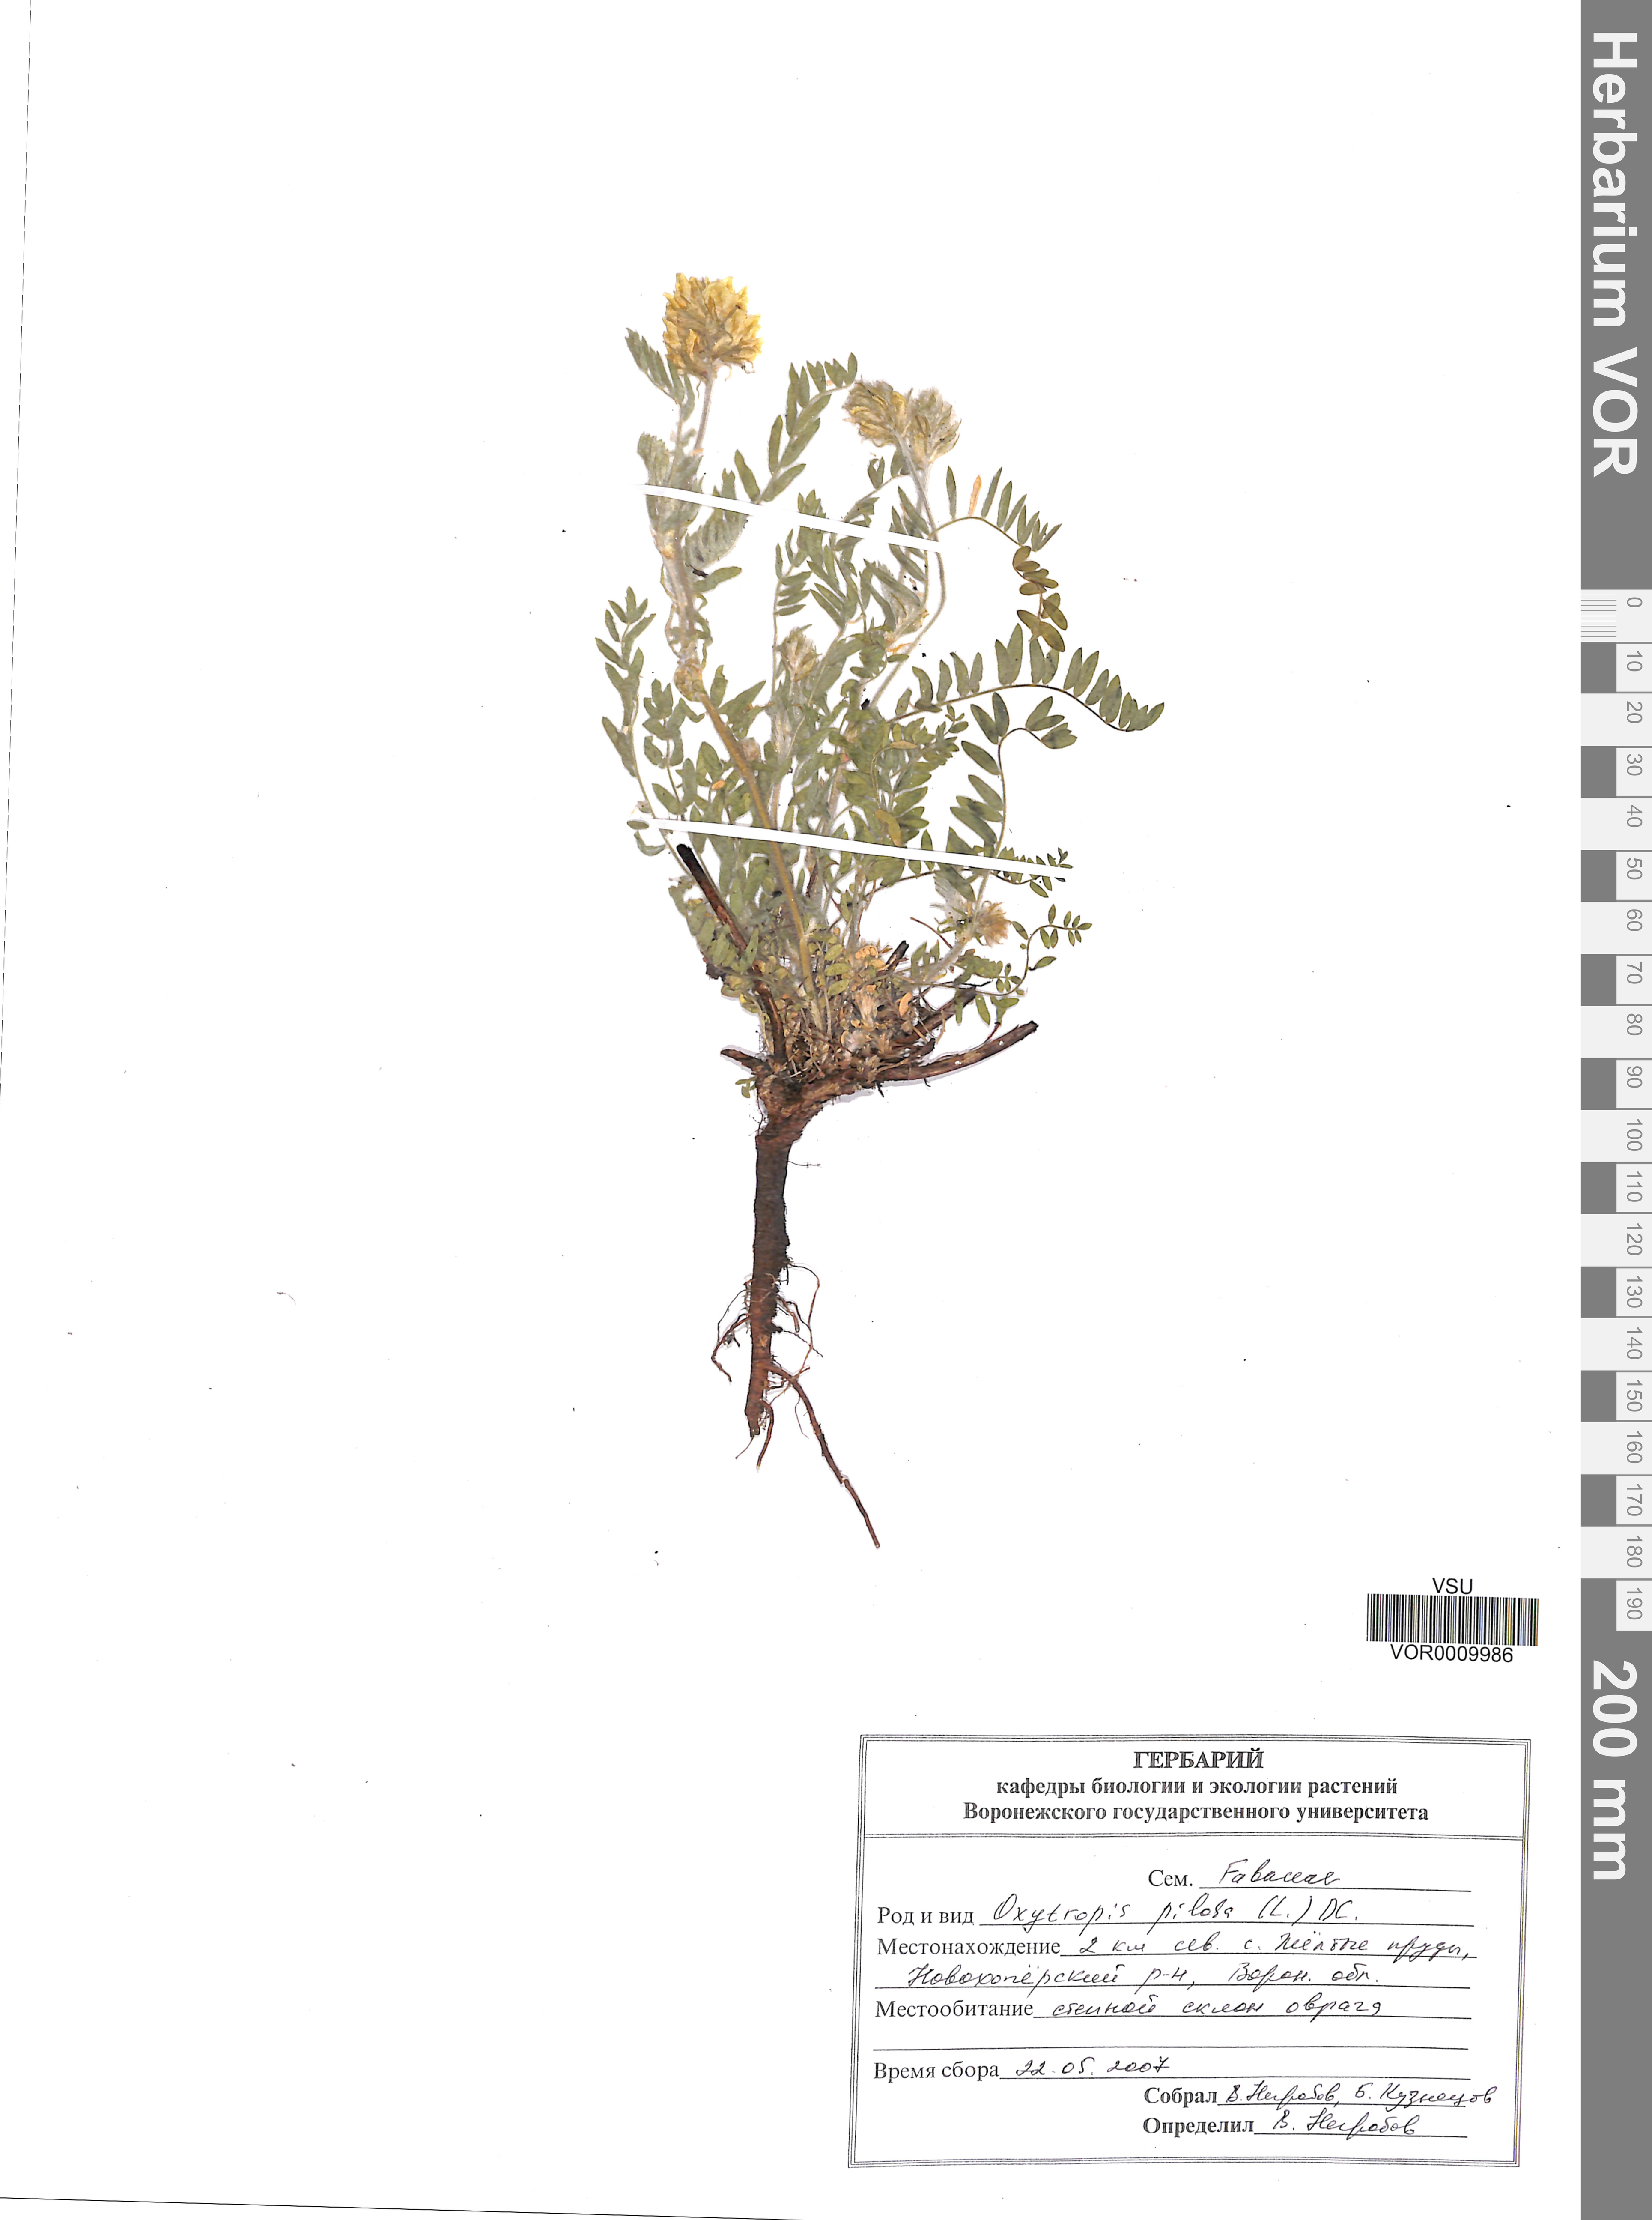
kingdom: Plantae
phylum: Tracheophyta
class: Magnoliopsida
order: Fabales
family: Fabaceae
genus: Oxytropis
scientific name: Oxytropis pilosa
